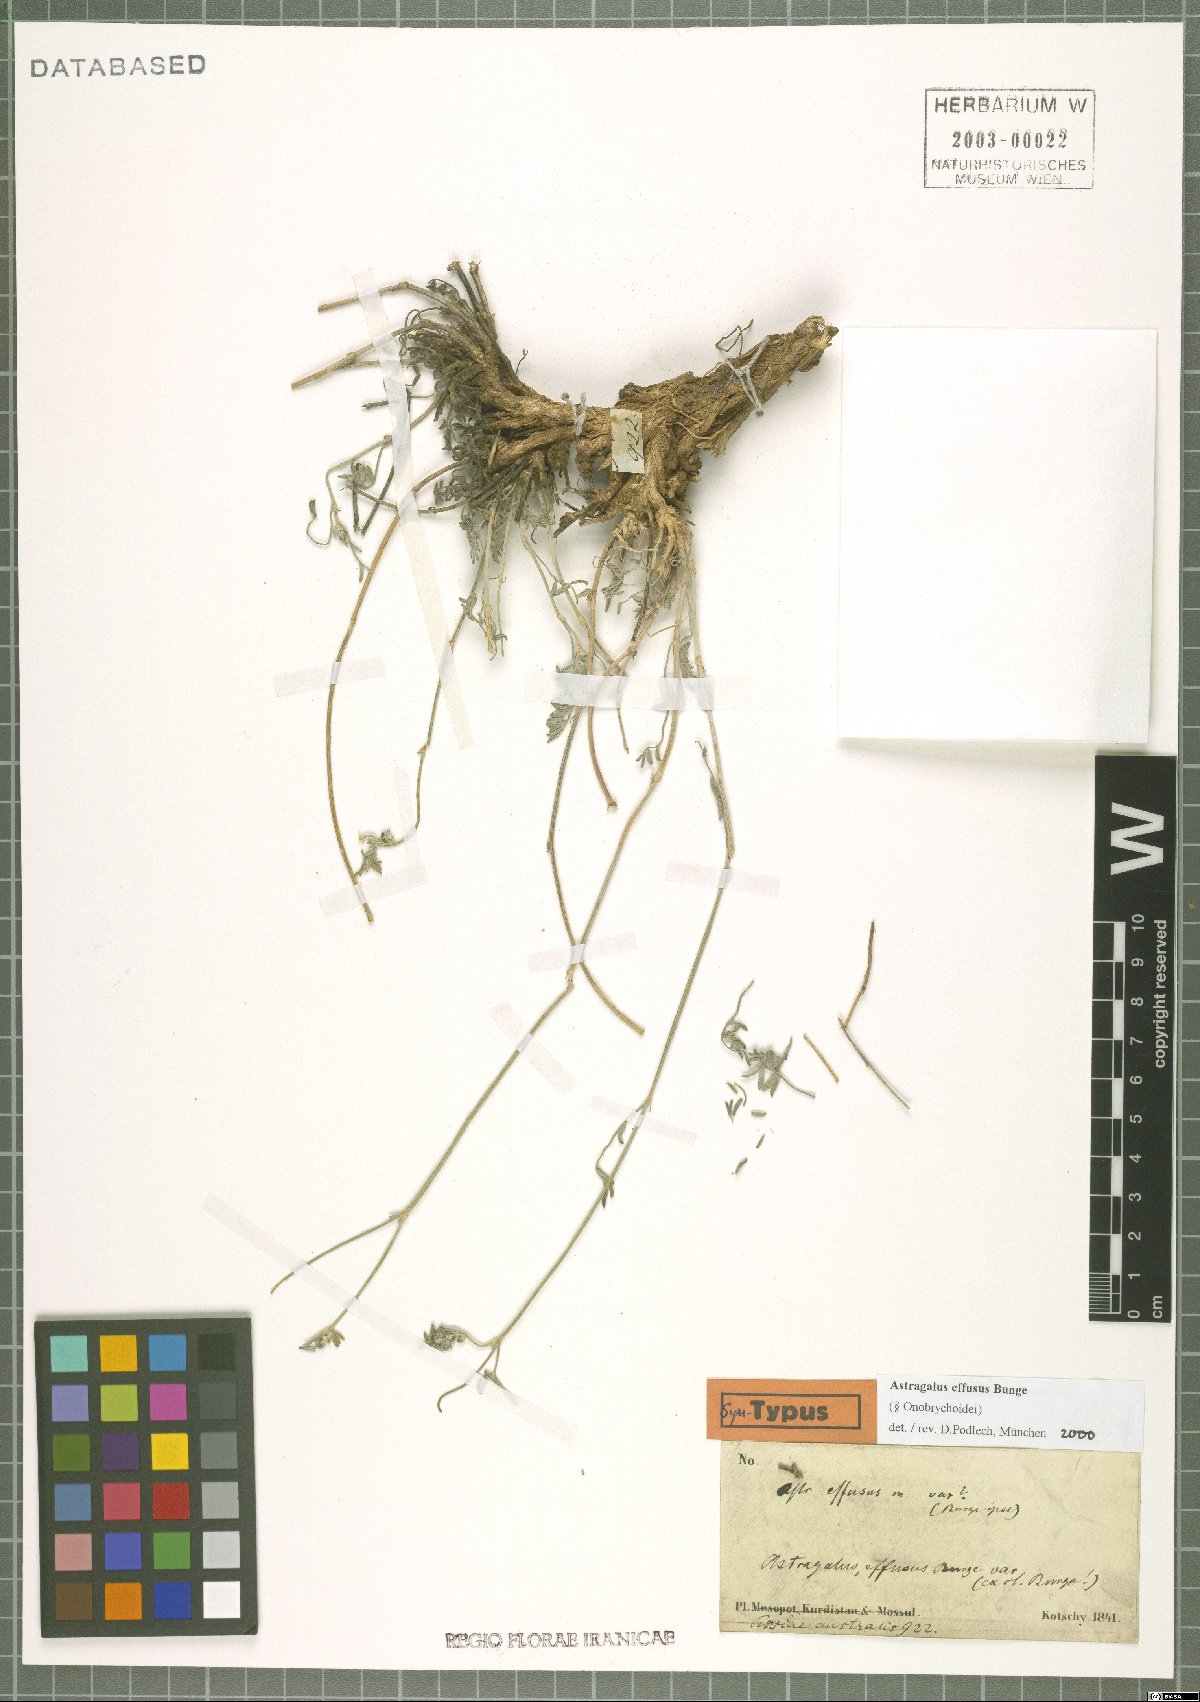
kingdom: Plantae
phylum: Tracheophyta
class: Magnoliopsida
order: Fabales
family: Fabaceae
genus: Astragalus
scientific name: Astragalus effusus
